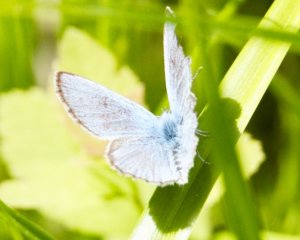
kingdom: Animalia
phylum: Arthropoda
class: Insecta
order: Lepidoptera
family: Lycaenidae
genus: Glaucopsyche
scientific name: Glaucopsyche lygdamus
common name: Silvery Blue
